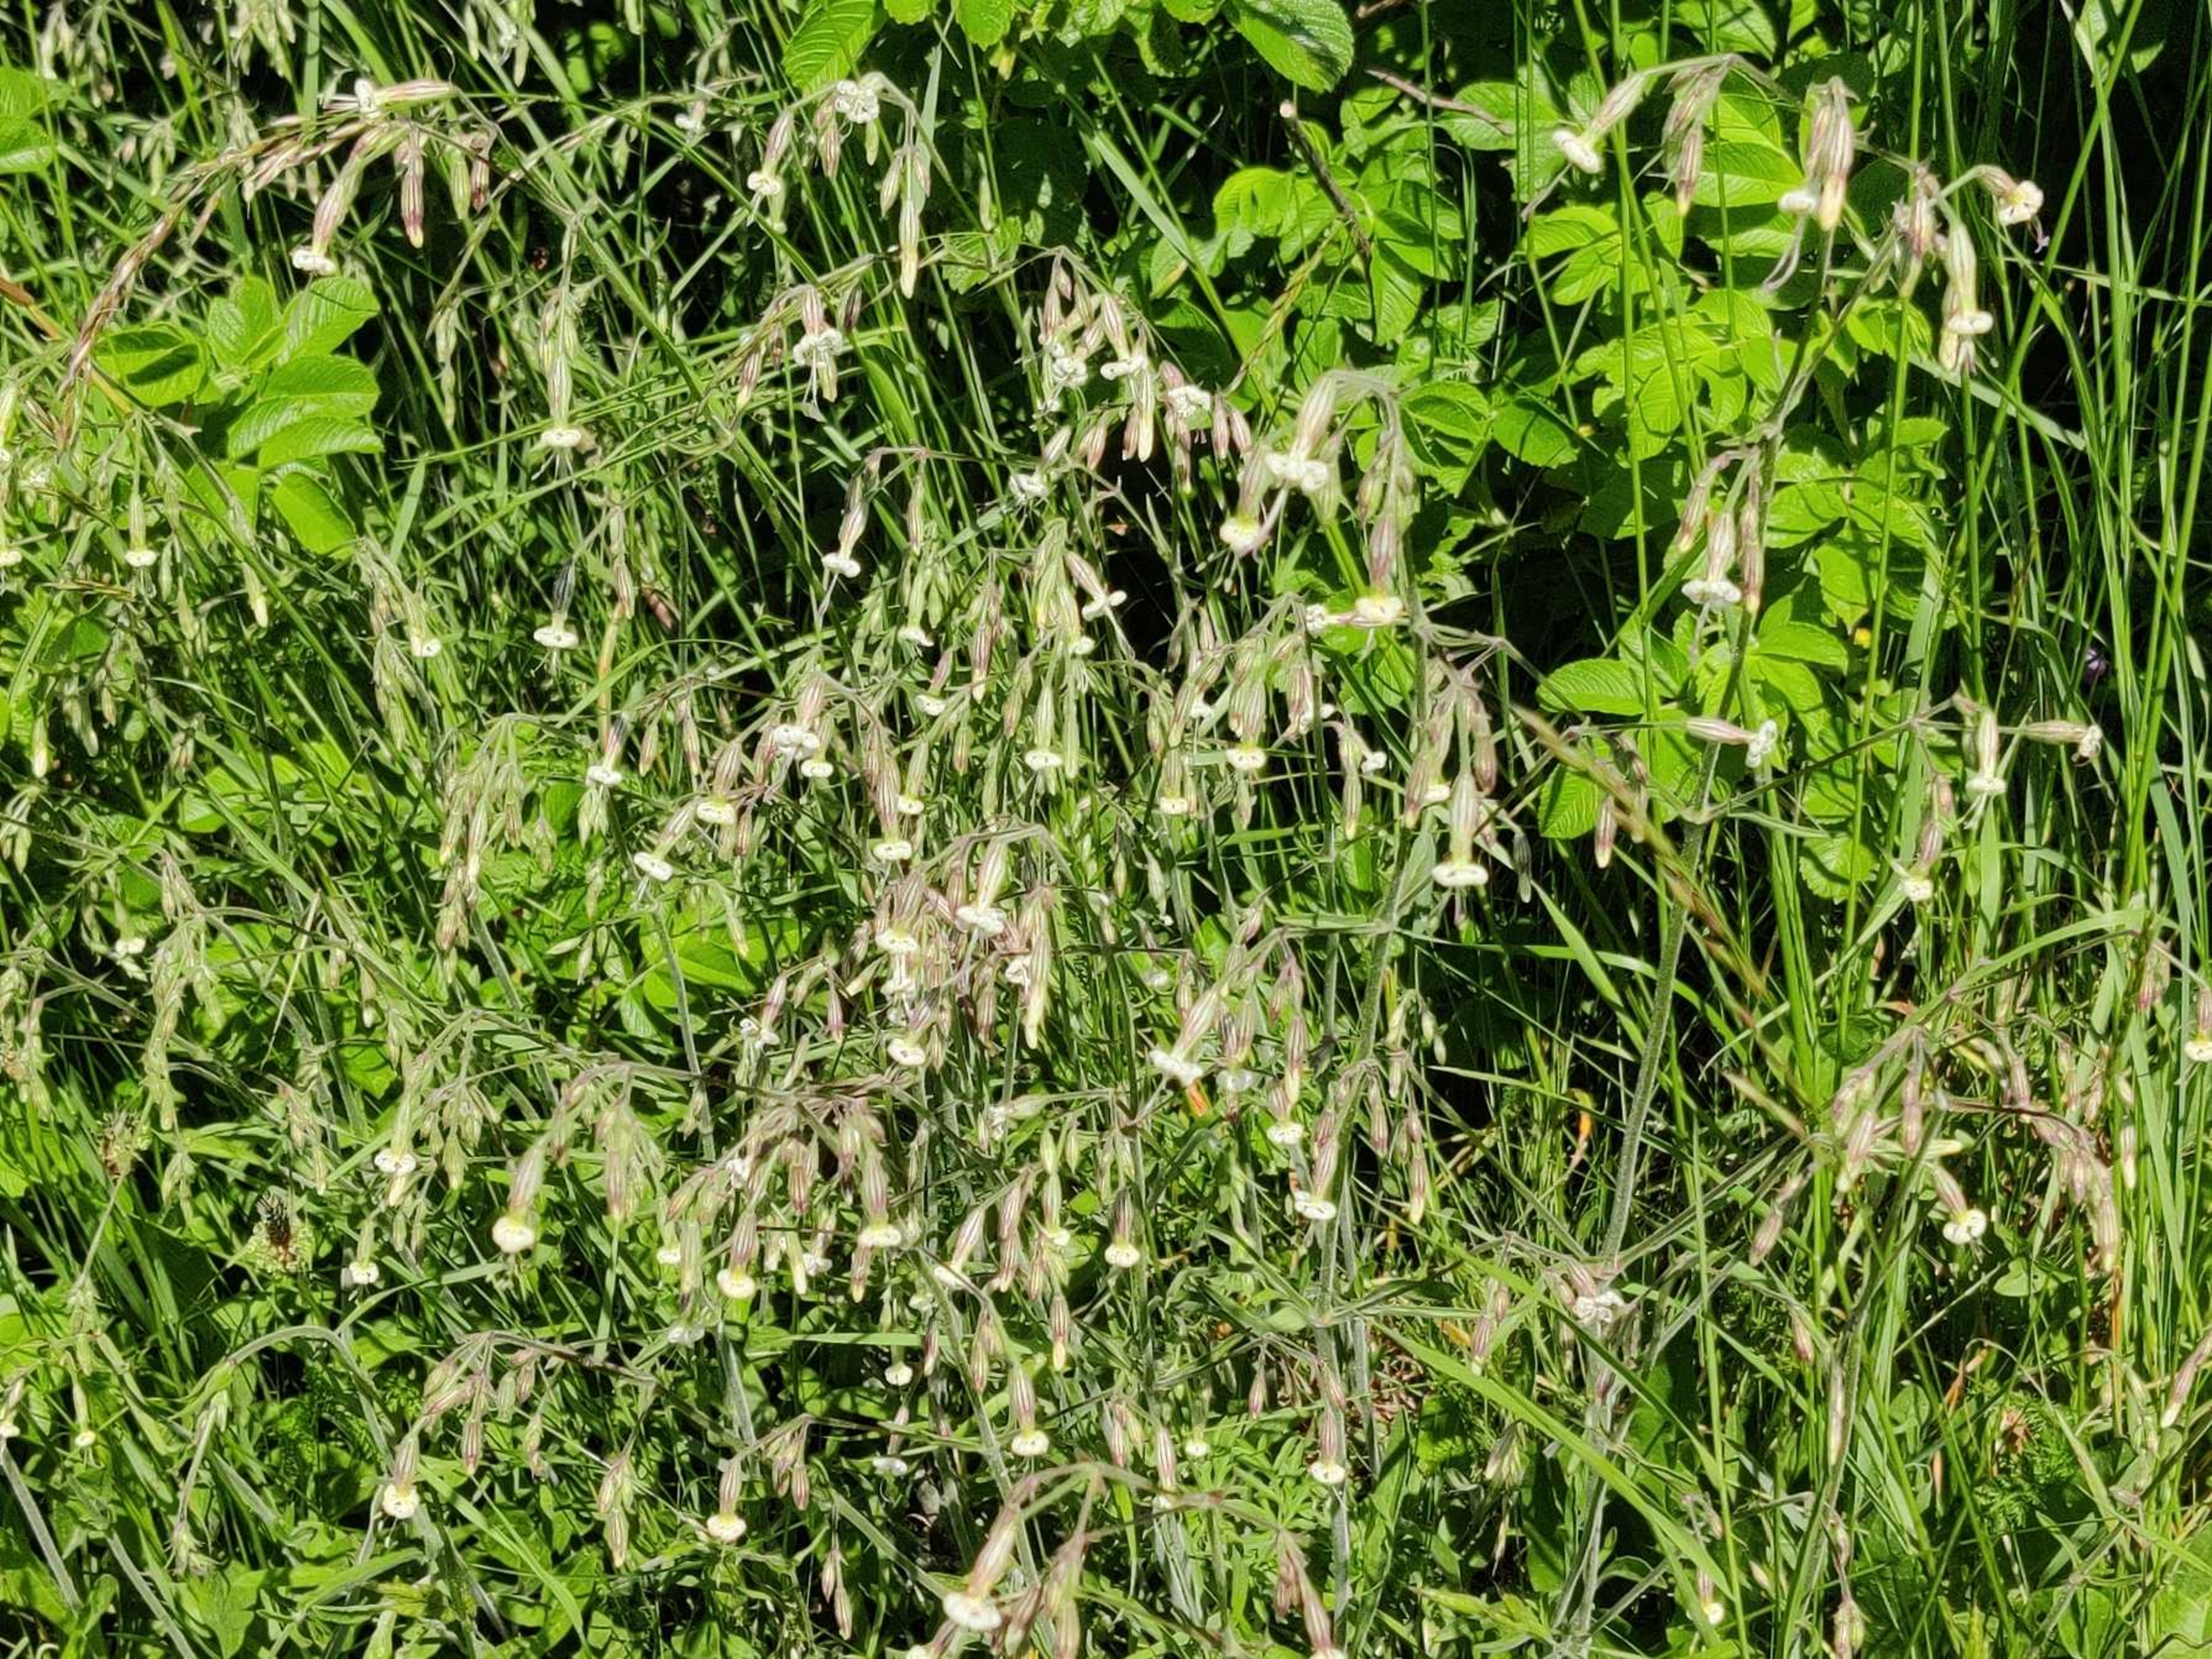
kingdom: Plantae
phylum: Tracheophyta
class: Magnoliopsida
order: Caryophyllales
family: Caryophyllaceae
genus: Silene
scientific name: Silene nutans
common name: Nikkende limurt
